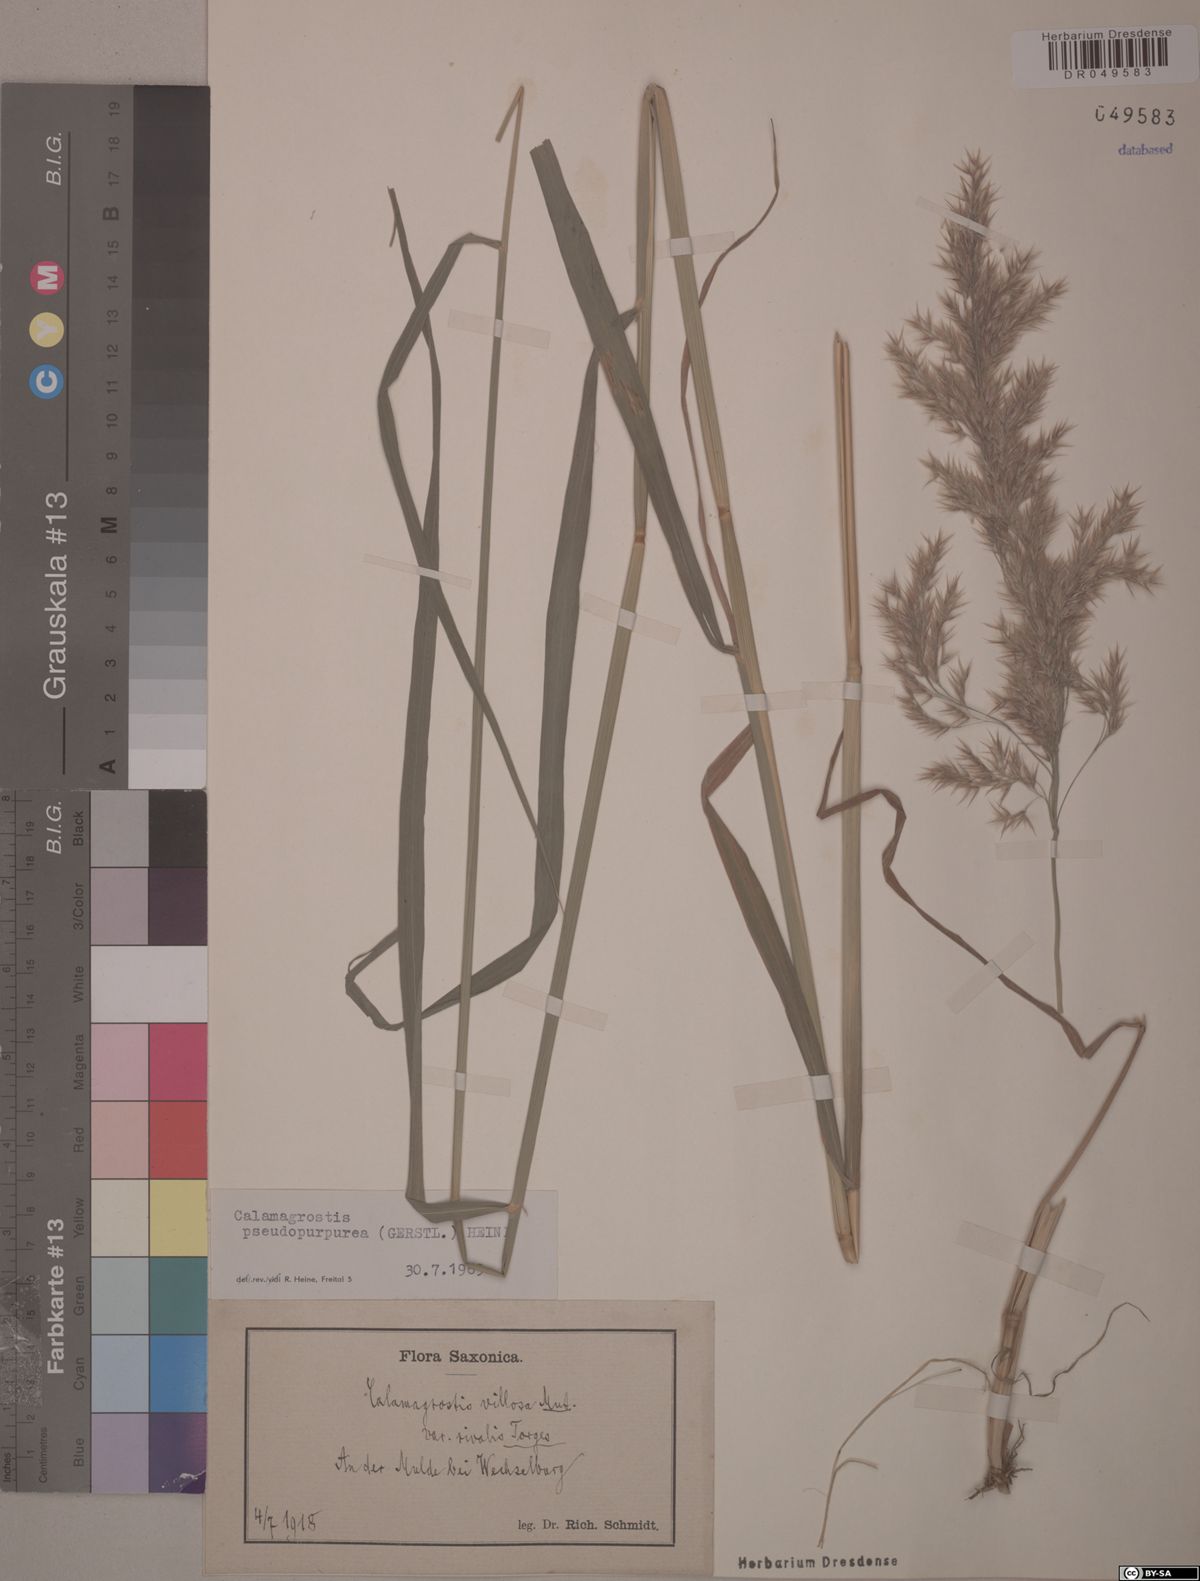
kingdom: Plantae
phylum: Tracheophyta
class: Liliopsida
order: Poales
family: Poaceae
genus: Calamagrostis
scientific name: Calamagrostis purpurea
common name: Scandinavian small-reed
